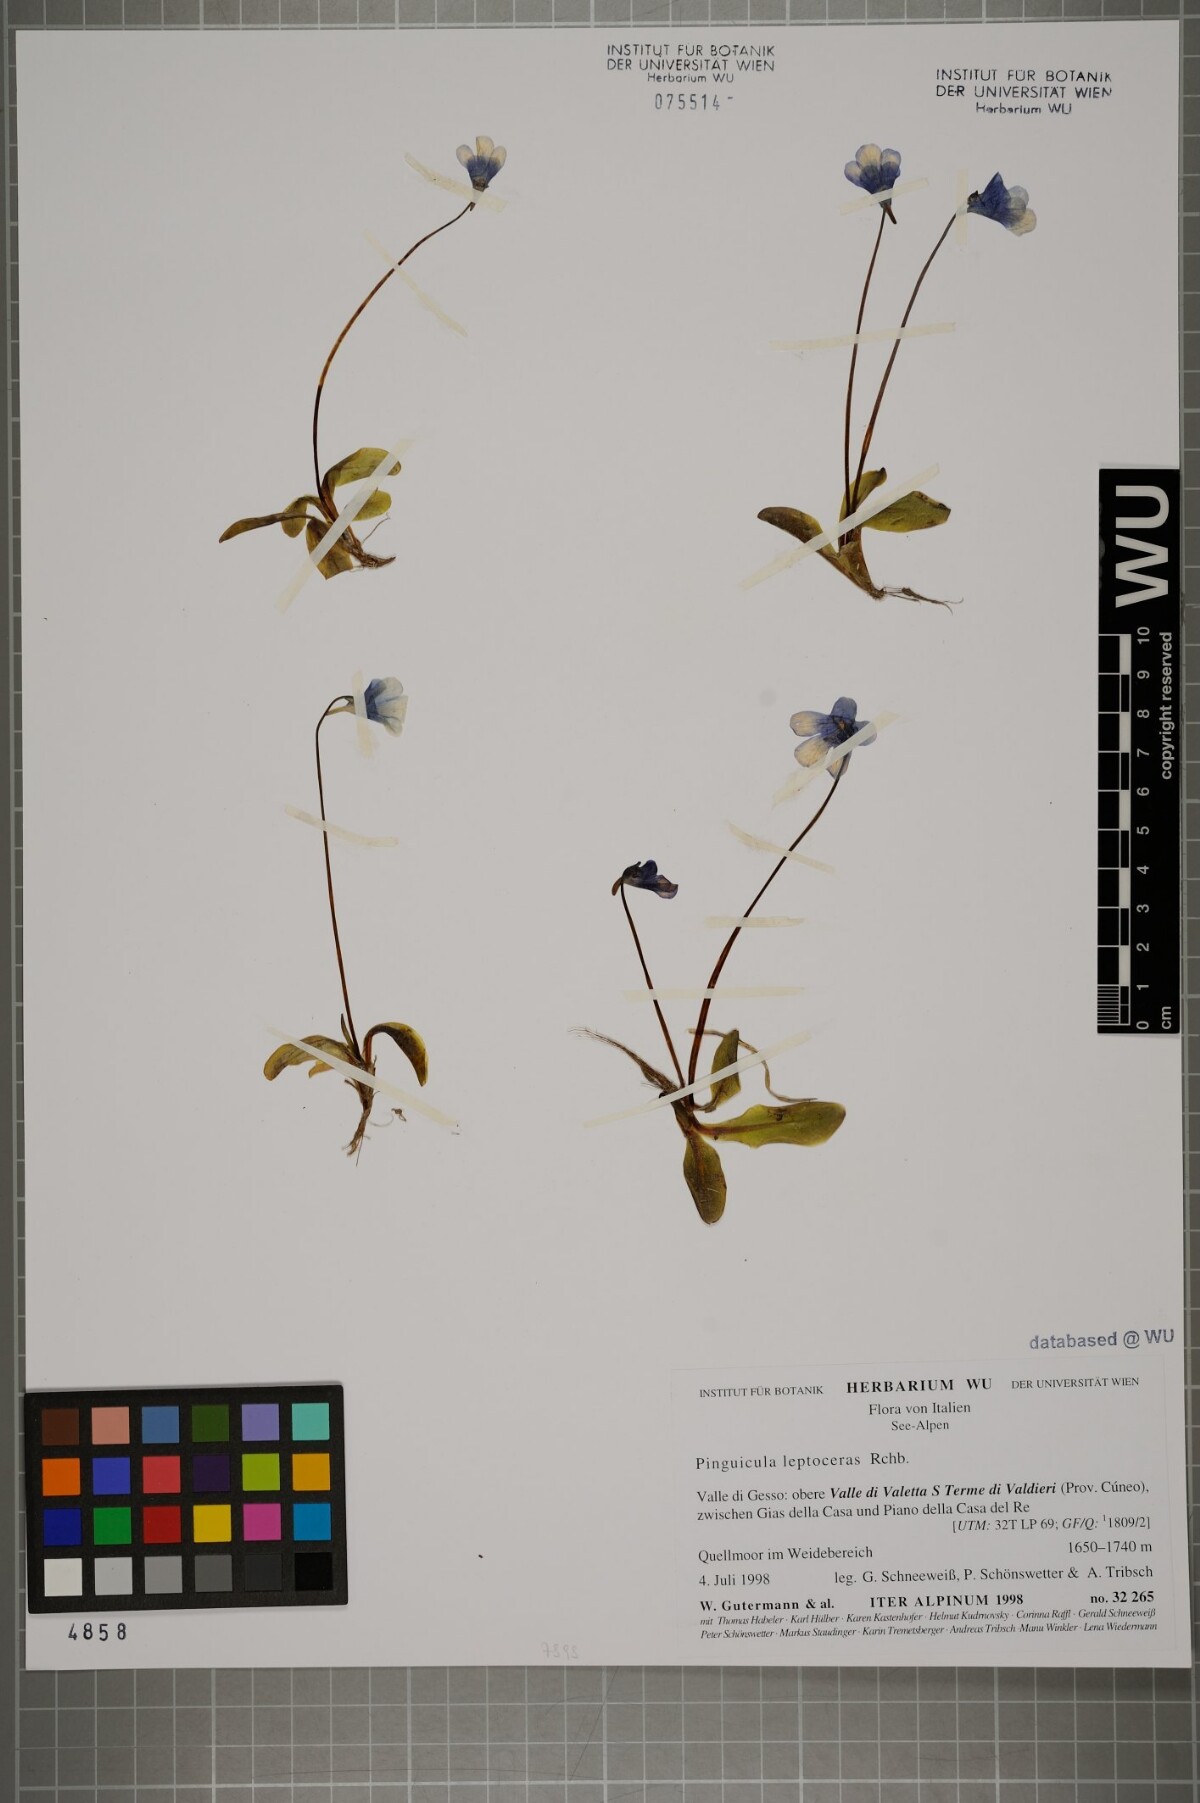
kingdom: Plantae
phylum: Tracheophyta
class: Magnoliopsida
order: Lamiales
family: Lentibulariaceae
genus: Pinguicula
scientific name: Pinguicula leptoceras
